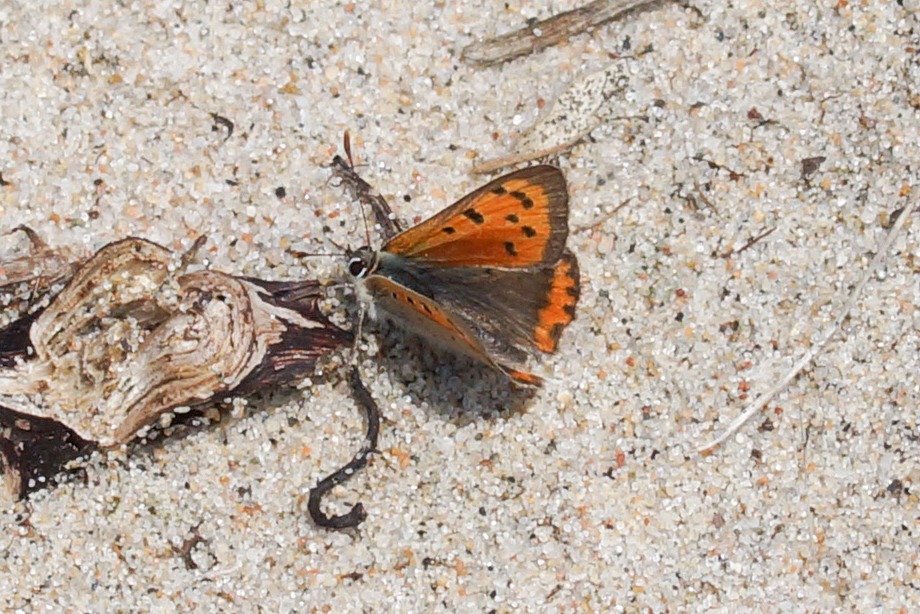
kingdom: Animalia
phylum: Arthropoda
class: Insecta
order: Lepidoptera
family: Lycaenidae
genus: Lycaena
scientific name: Lycaena phlaeas
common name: Lille ildfugl
